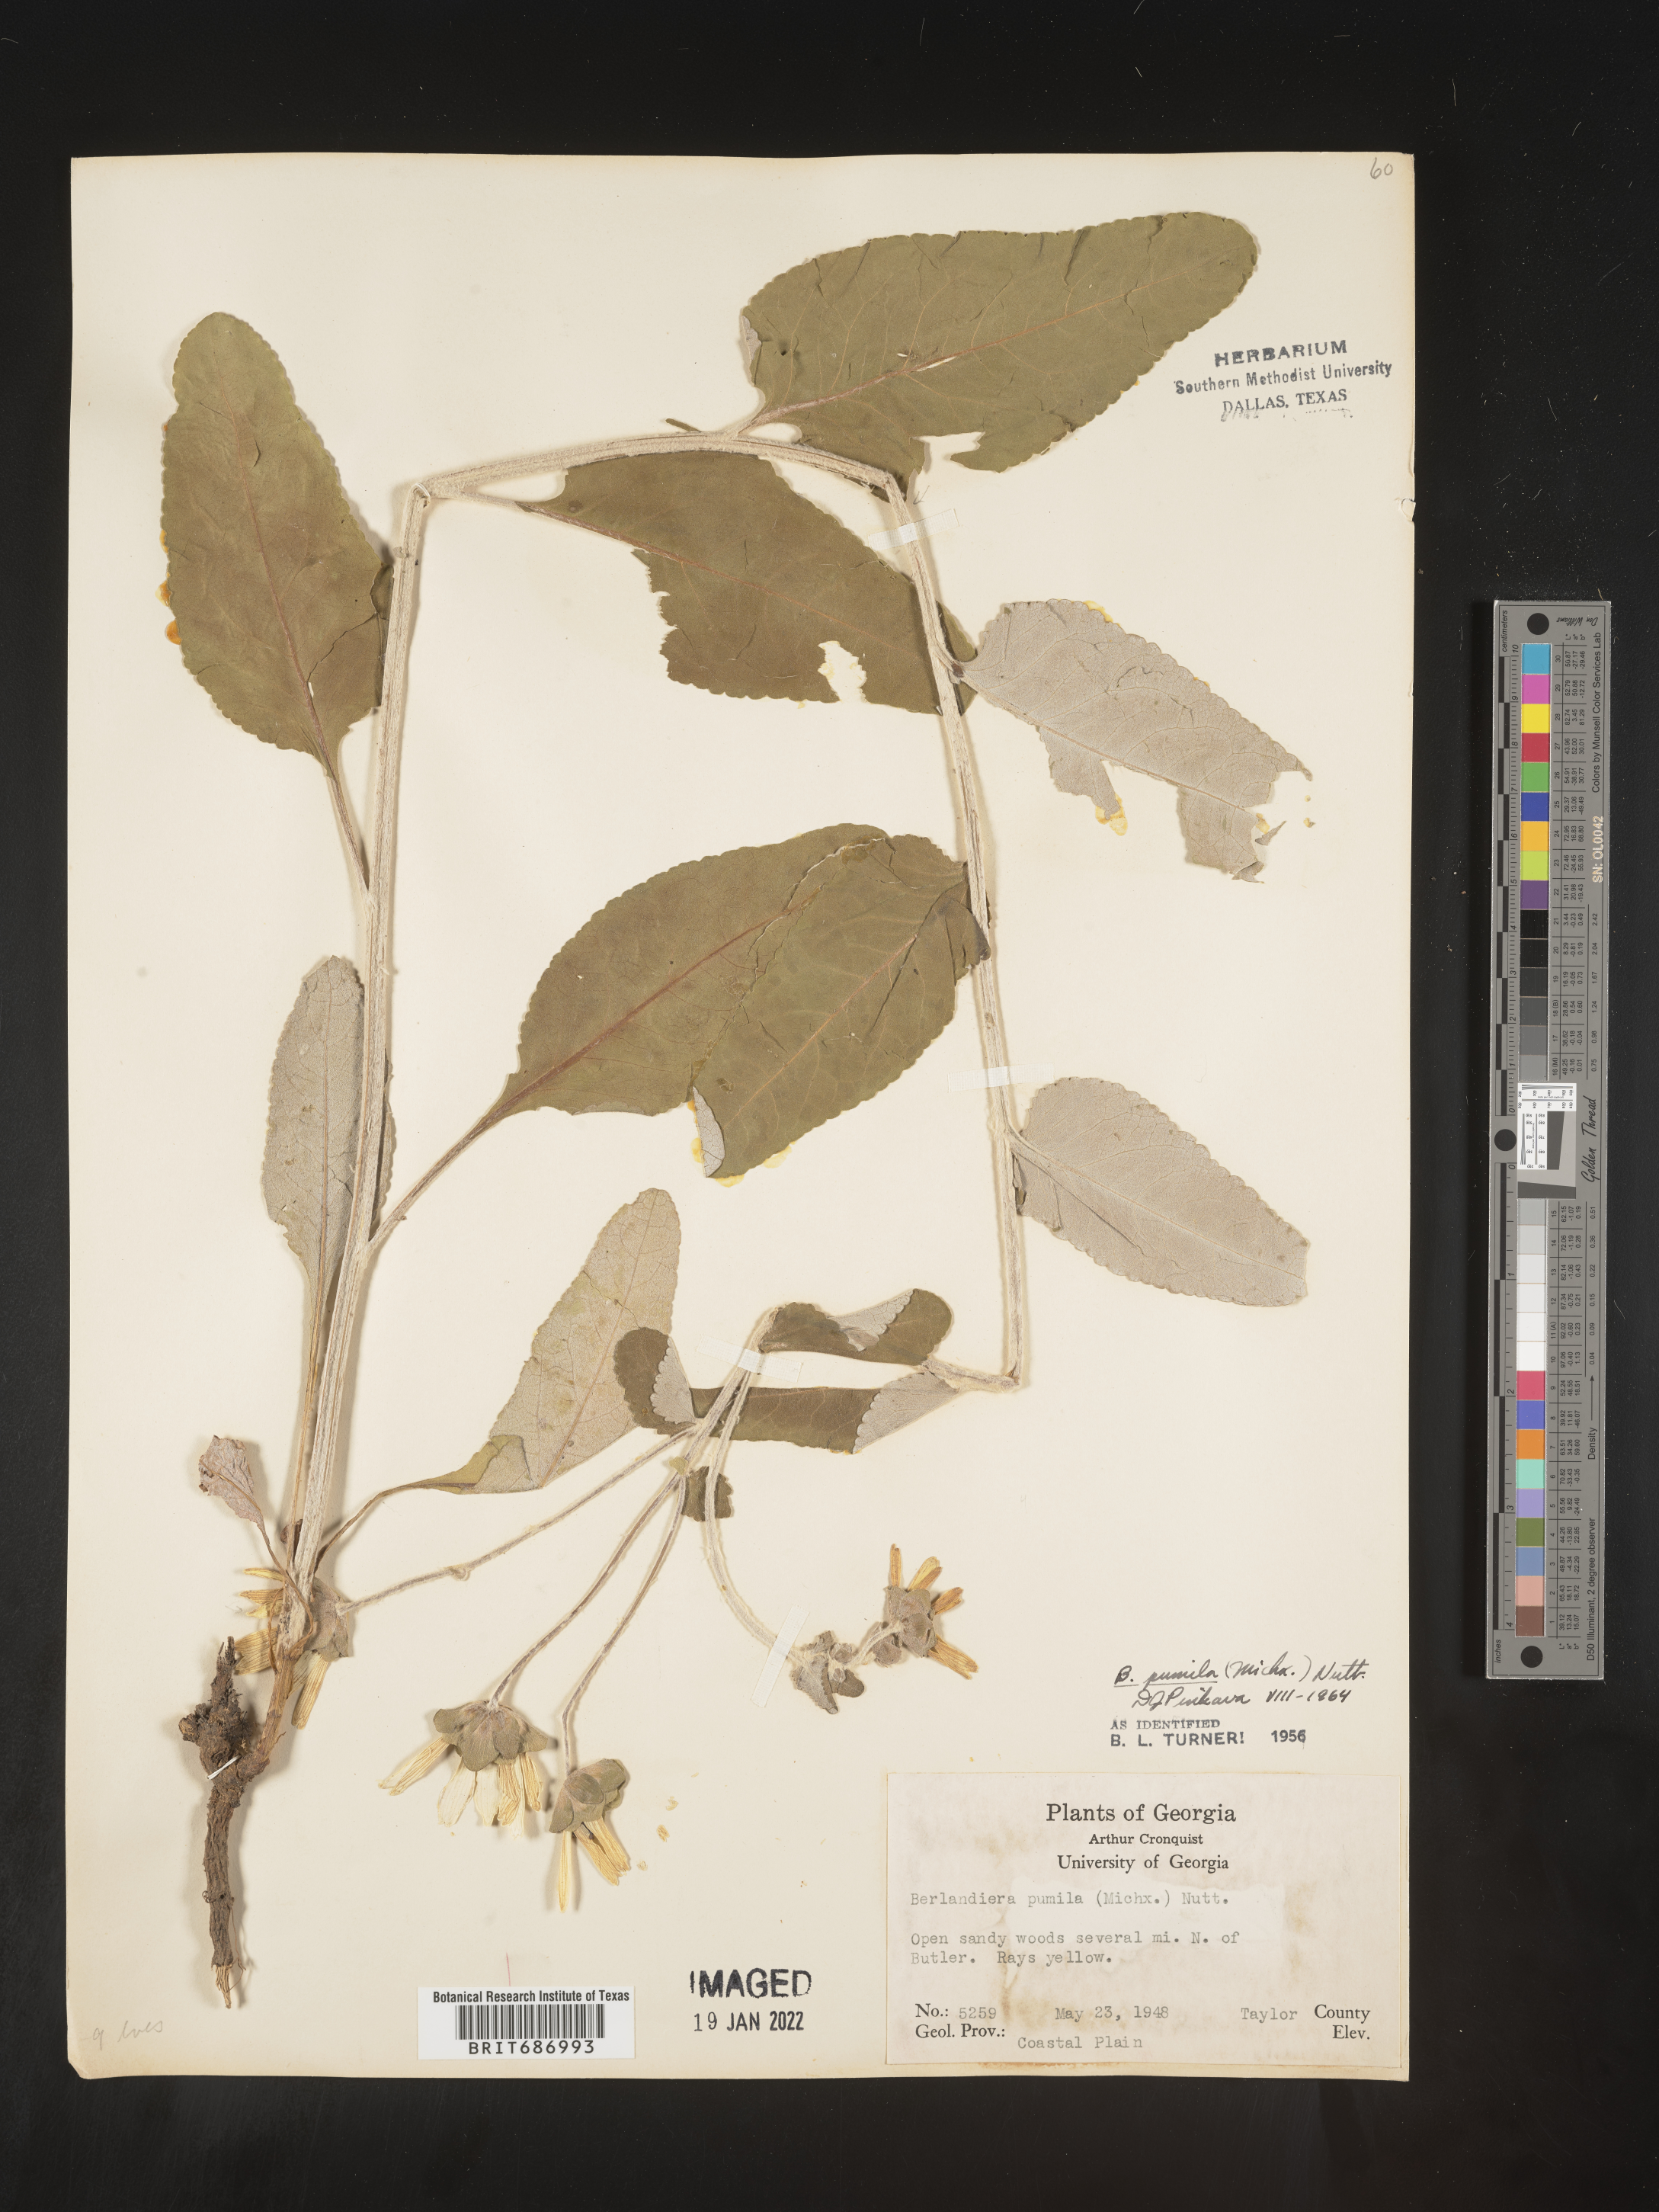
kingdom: Plantae
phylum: Tracheophyta
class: Magnoliopsida
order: Asterales
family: Asteraceae
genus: Berlandiera
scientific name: Berlandiera pumila
